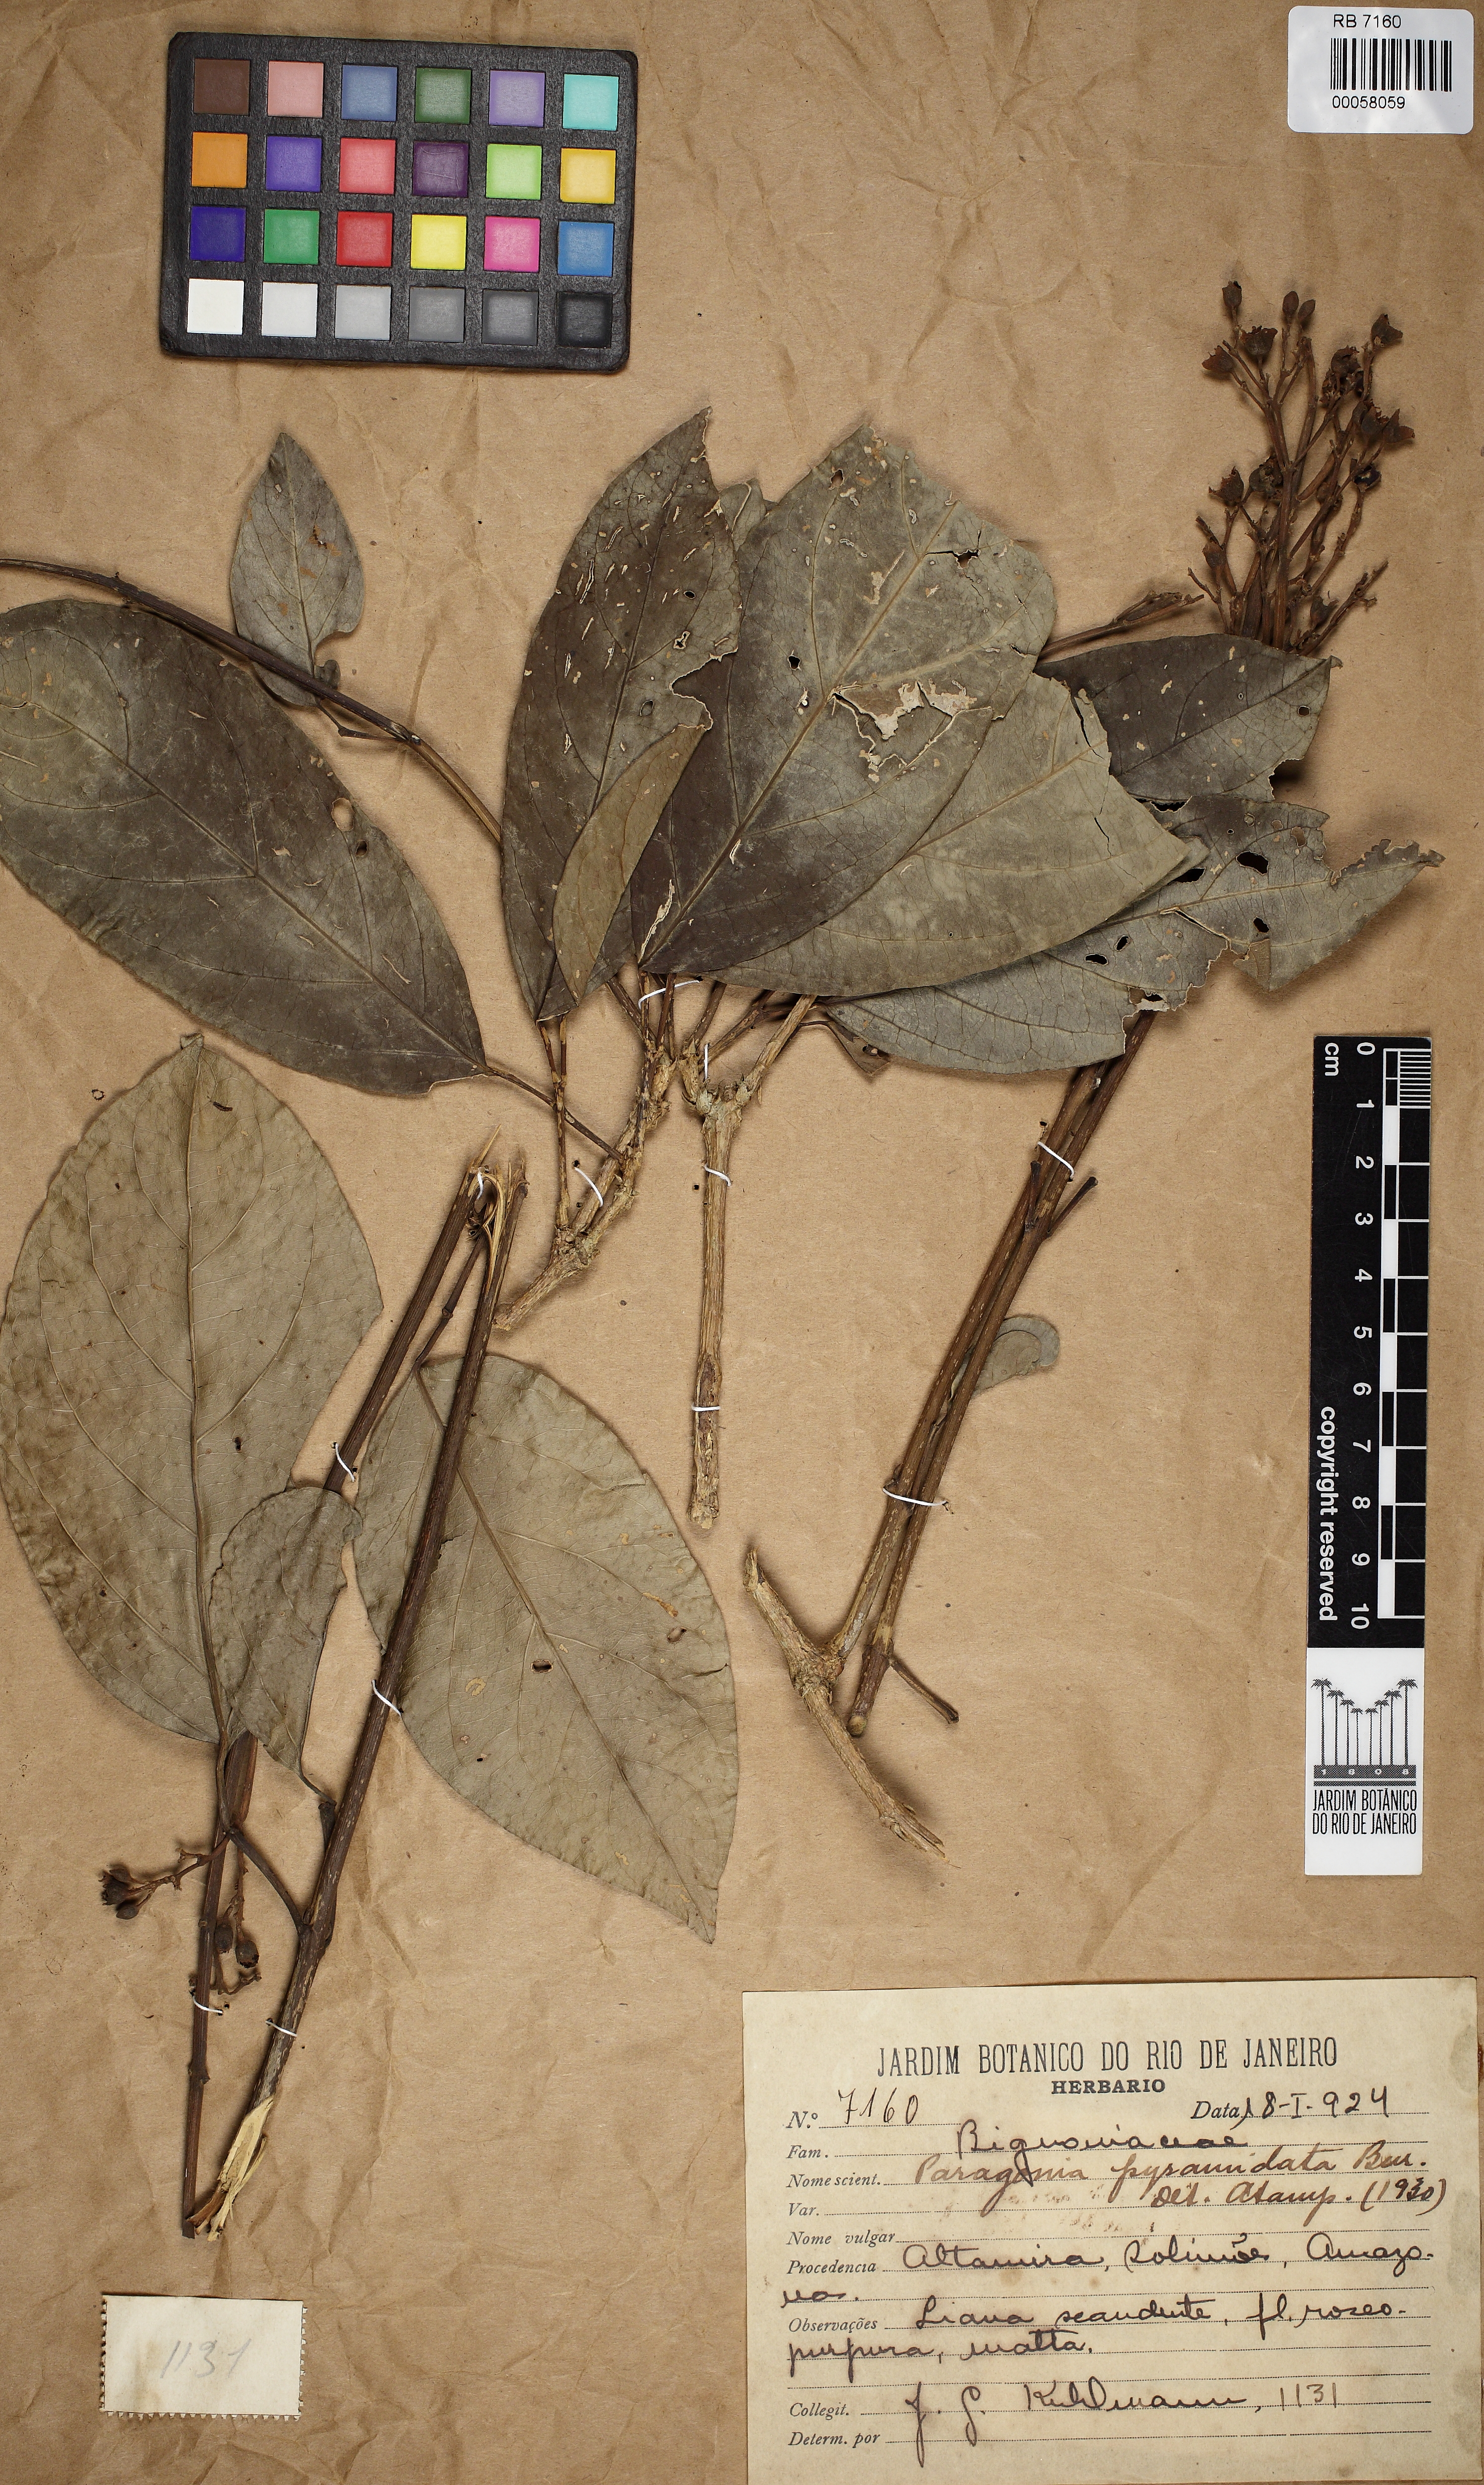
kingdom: Plantae
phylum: Tracheophyta
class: Magnoliopsida
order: Lamiales
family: Bignoniaceae
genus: Tanaecium
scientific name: Tanaecium pyramidatum
